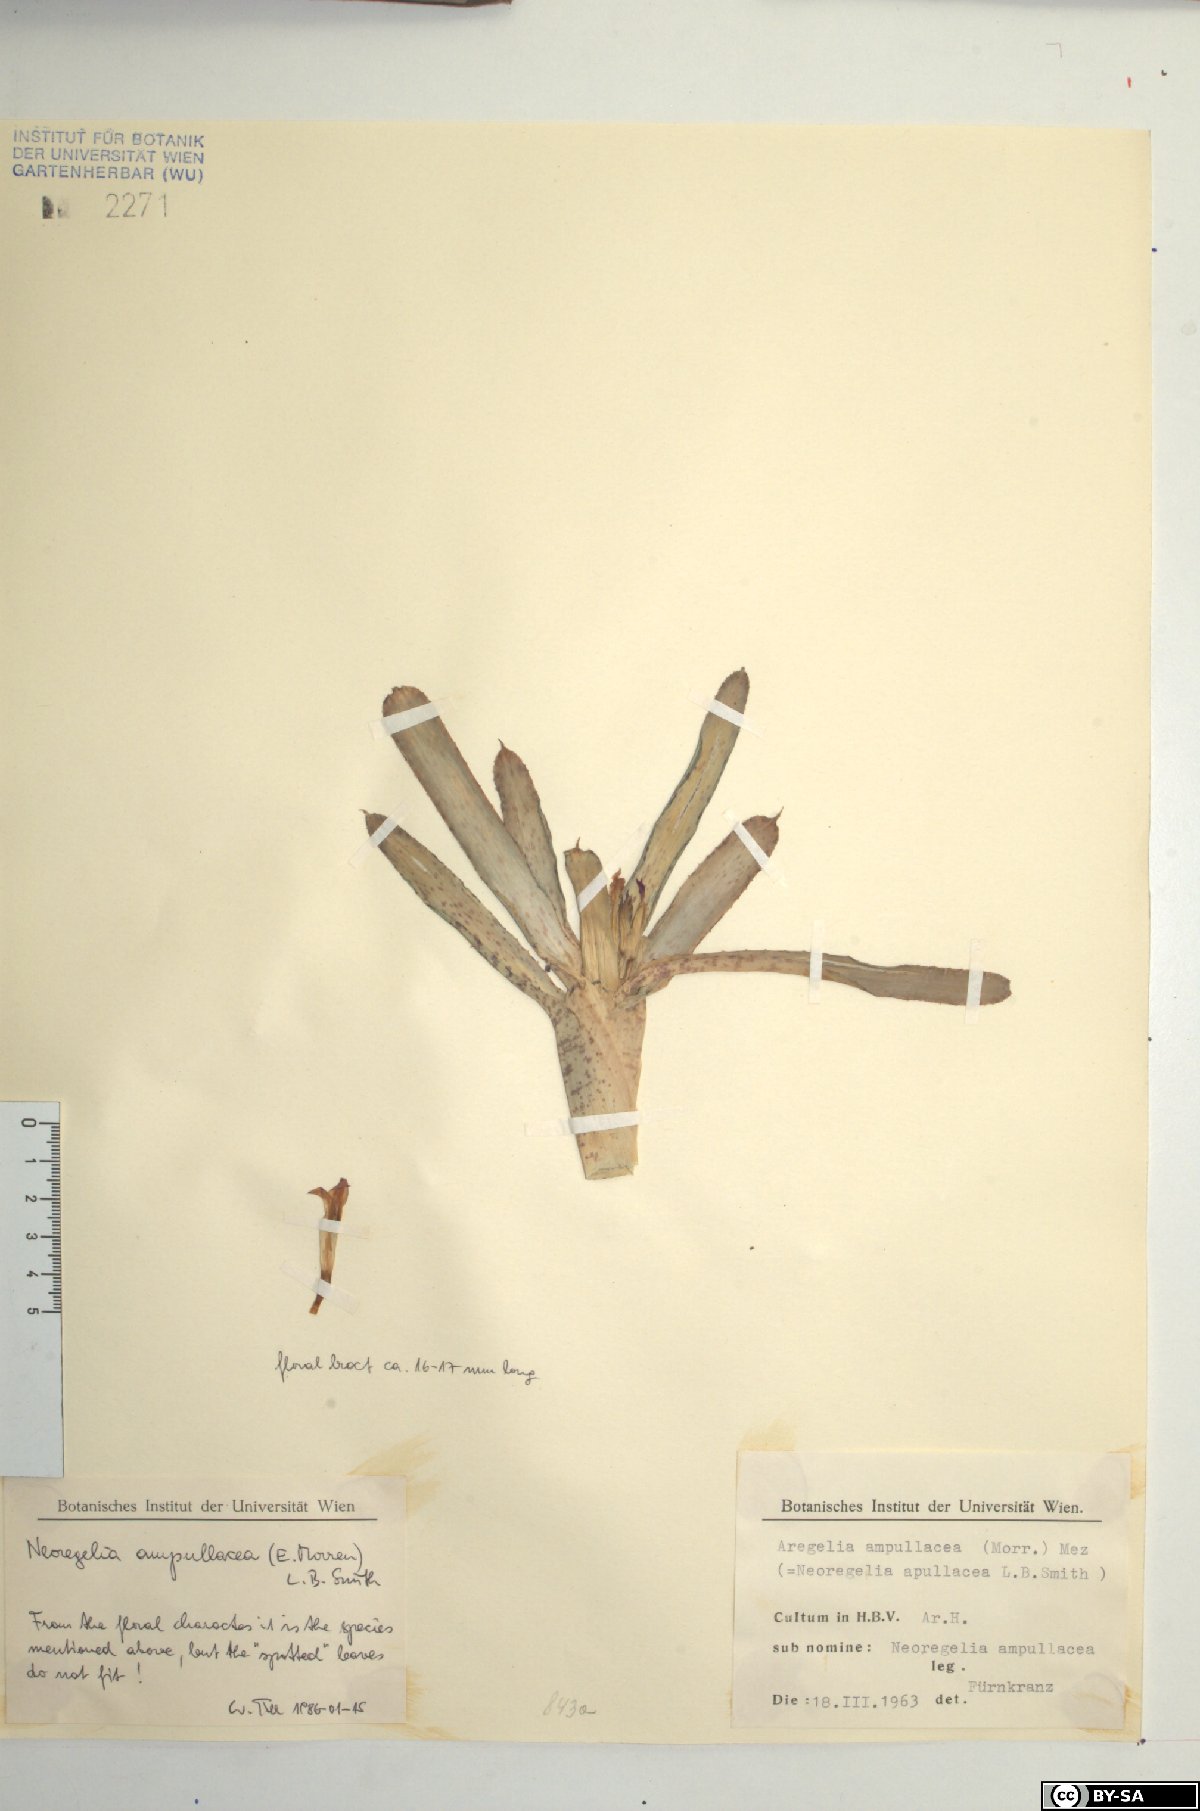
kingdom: Plantae
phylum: Tracheophyta
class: Liliopsida
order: Poales
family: Bromeliaceae
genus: Neoregelia
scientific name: Neoregelia ampullacea
